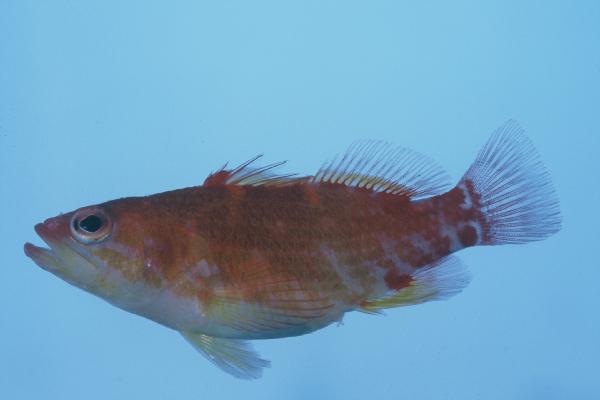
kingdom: Animalia
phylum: Chordata
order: Perciformes
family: Serranidae
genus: Plectranthias
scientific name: Plectranthias winniensis
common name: Redblotch perchlet
